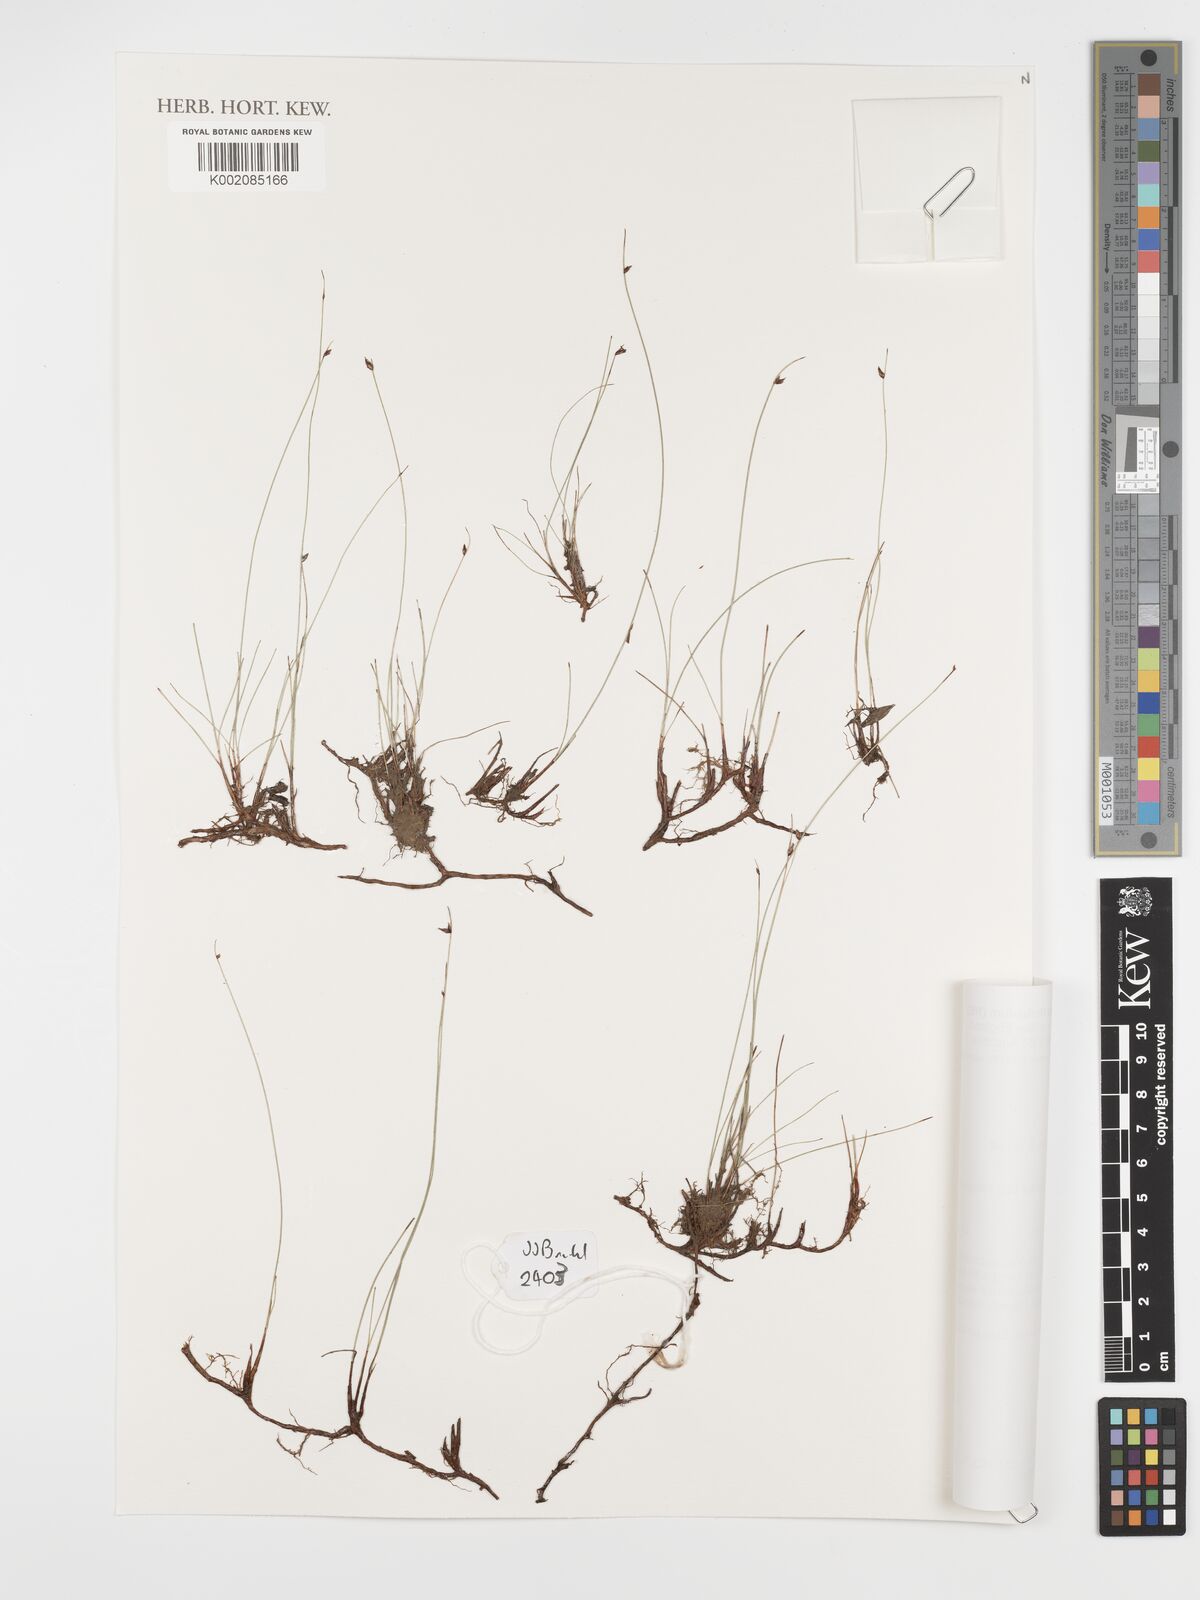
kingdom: Plantae
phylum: Tracheophyta
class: Liliopsida
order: Poales
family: Cyperaceae
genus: Schoenus
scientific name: Schoenus nitens
